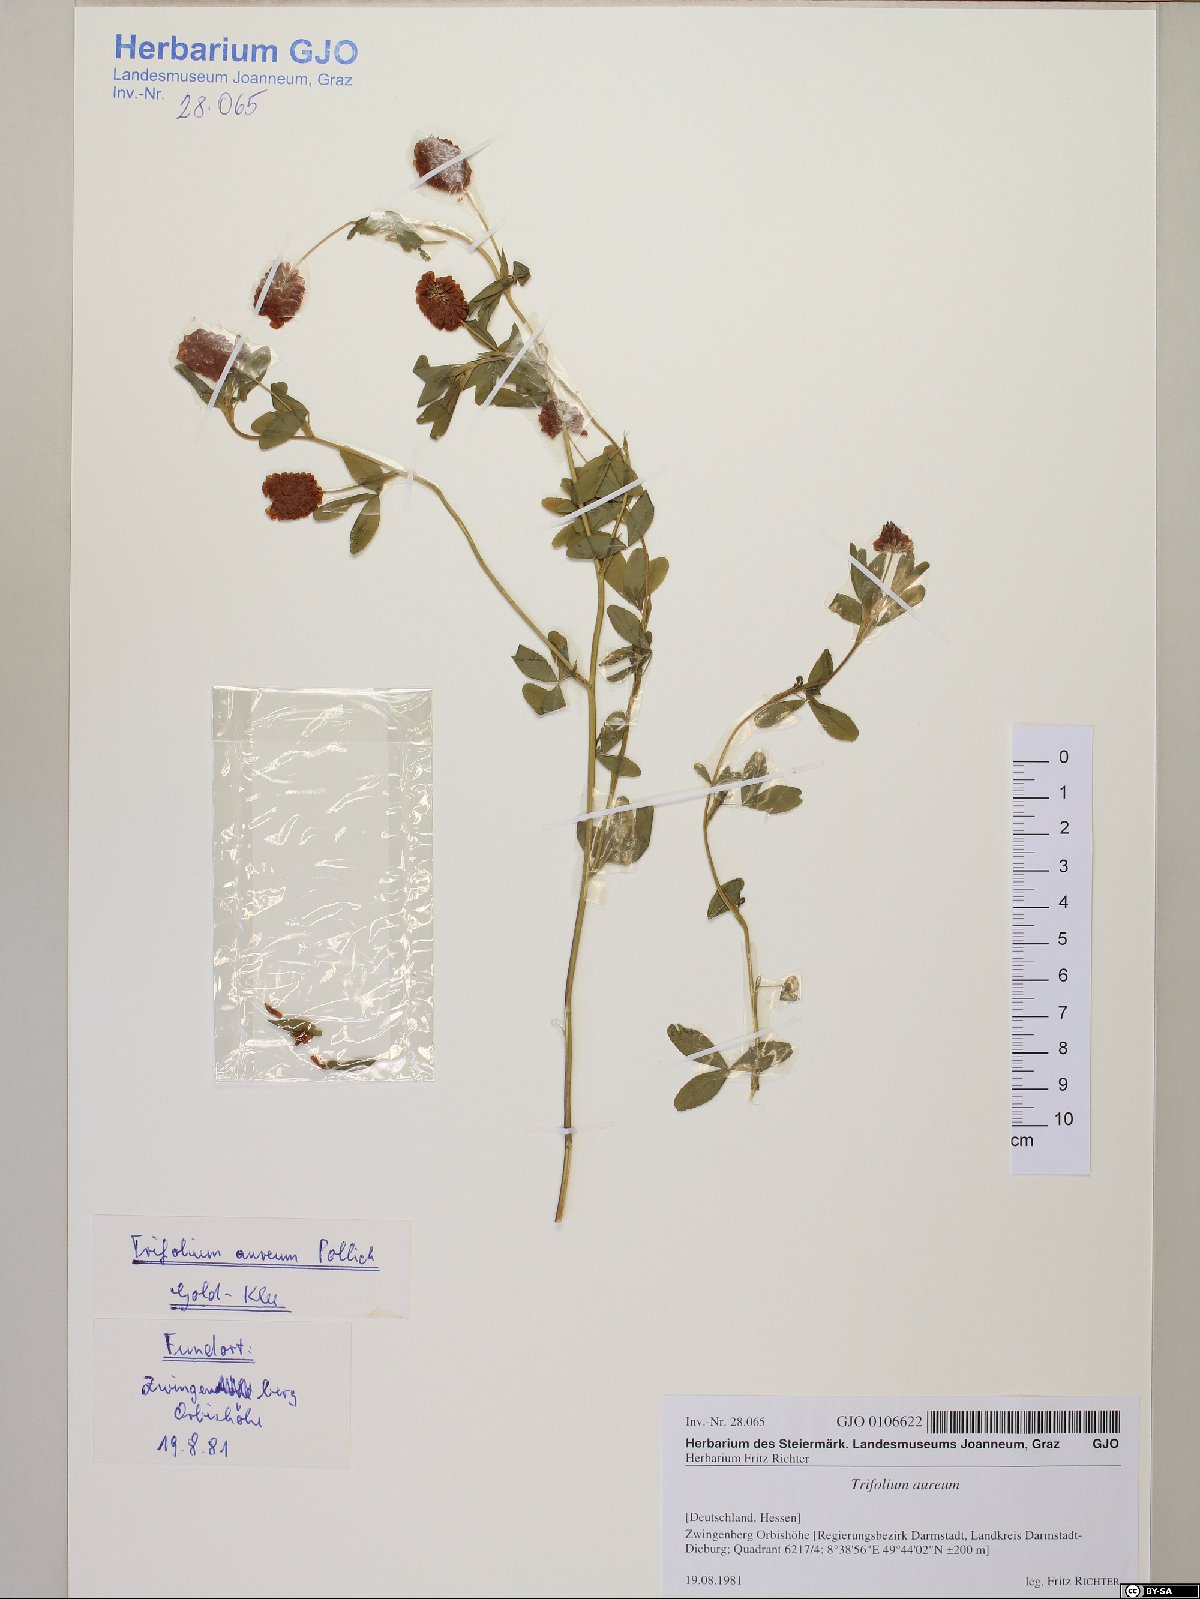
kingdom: Plantae
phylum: Tracheophyta
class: Magnoliopsida
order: Fabales
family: Fabaceae
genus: Trifolium
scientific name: Trifolium aureum
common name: Golden clover
